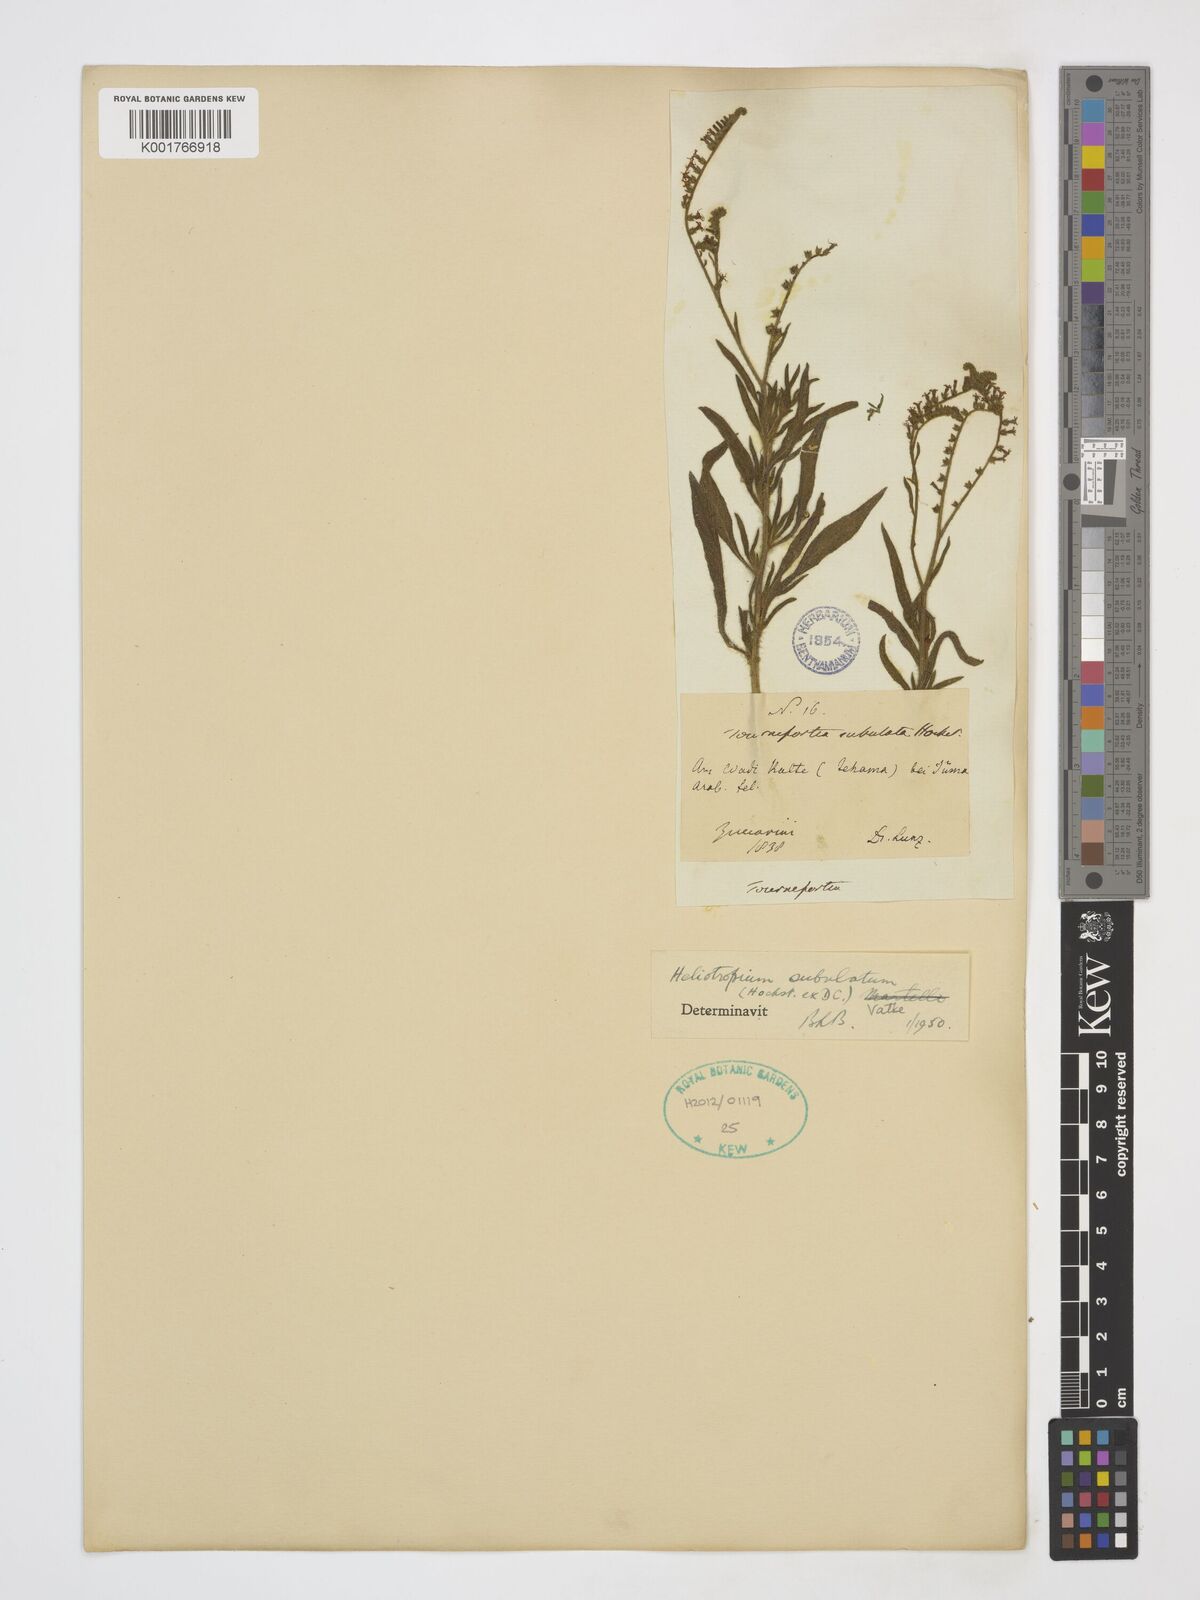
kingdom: Plantae
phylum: Tracheophyta
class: Magnoliopsida
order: Boraginales
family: Heliotropiaceae
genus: Heliotropium
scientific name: Heliotropium zeylanicum
